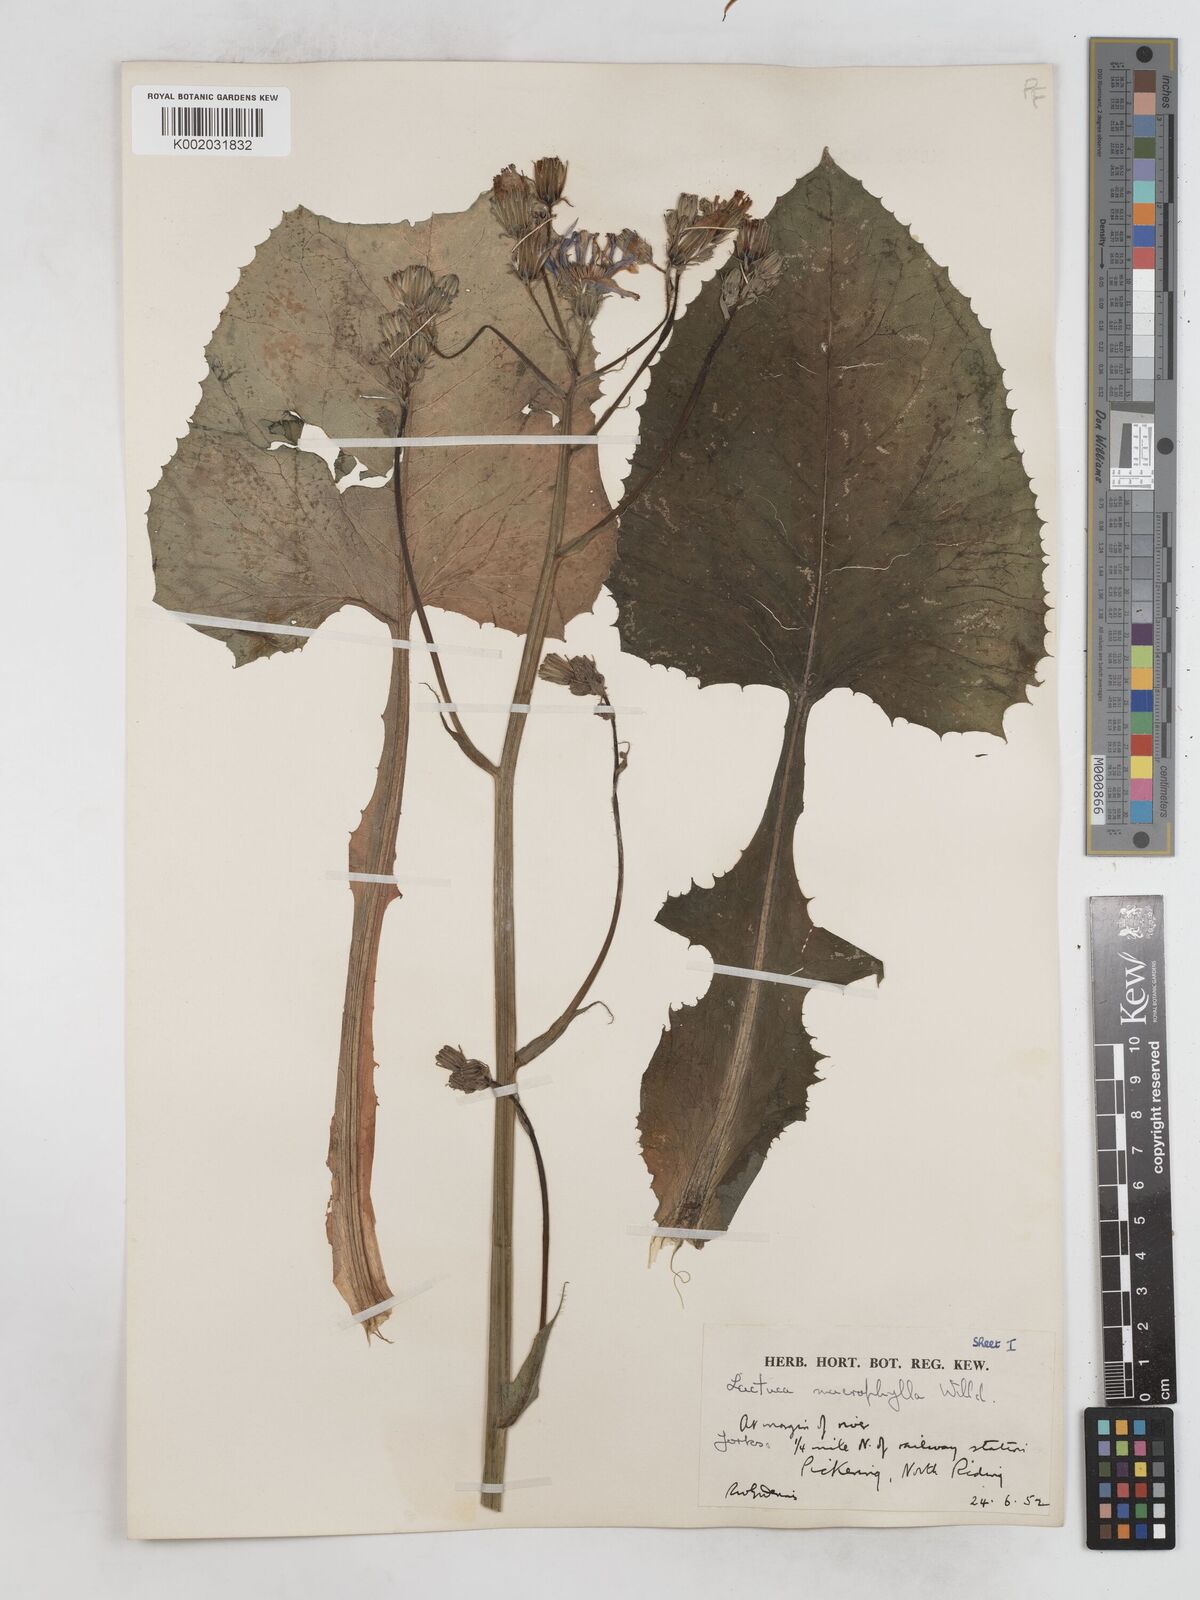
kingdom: Plantae
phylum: Tracheophyta
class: Magnoliopsida
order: Asterales
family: Asteraceae
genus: Lactuca
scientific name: Lactuca macrophylla
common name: Common blue-sow-thistle
